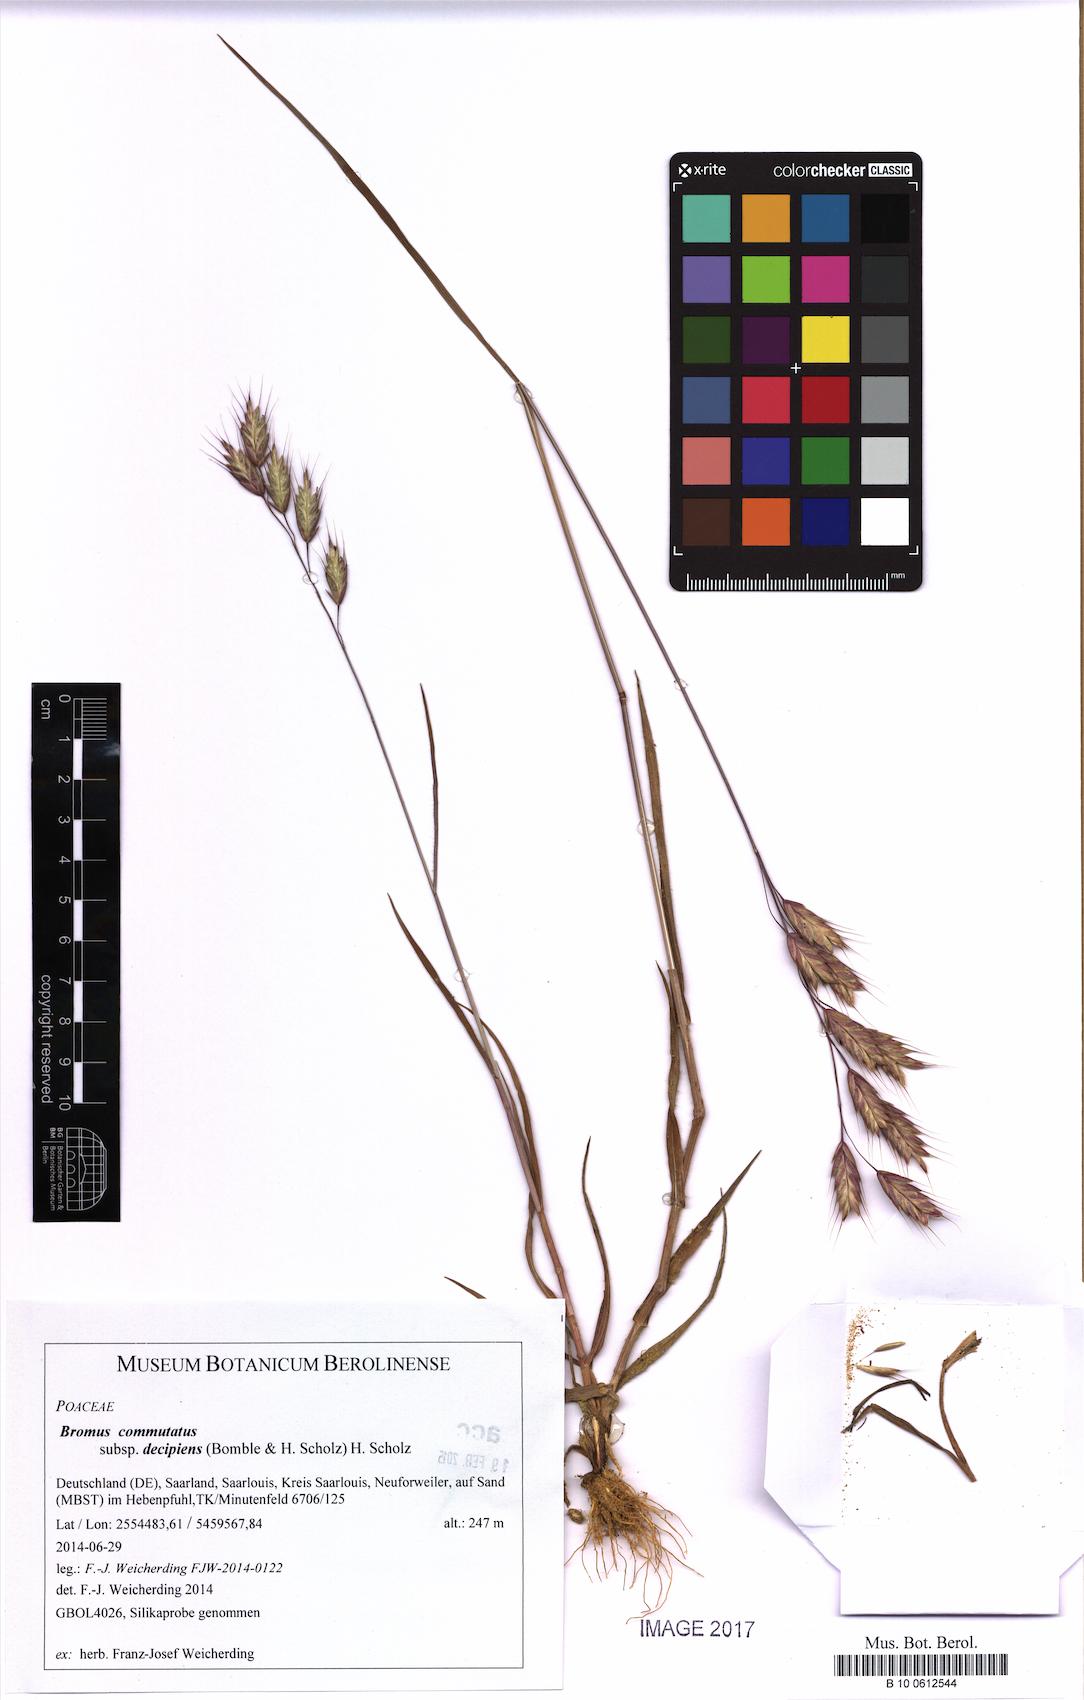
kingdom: Plantae
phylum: Tracheophyta
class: Liliopsida
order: Poales
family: Poaceae
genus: Bromus
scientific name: Bromus commutatus
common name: Meadow brome
